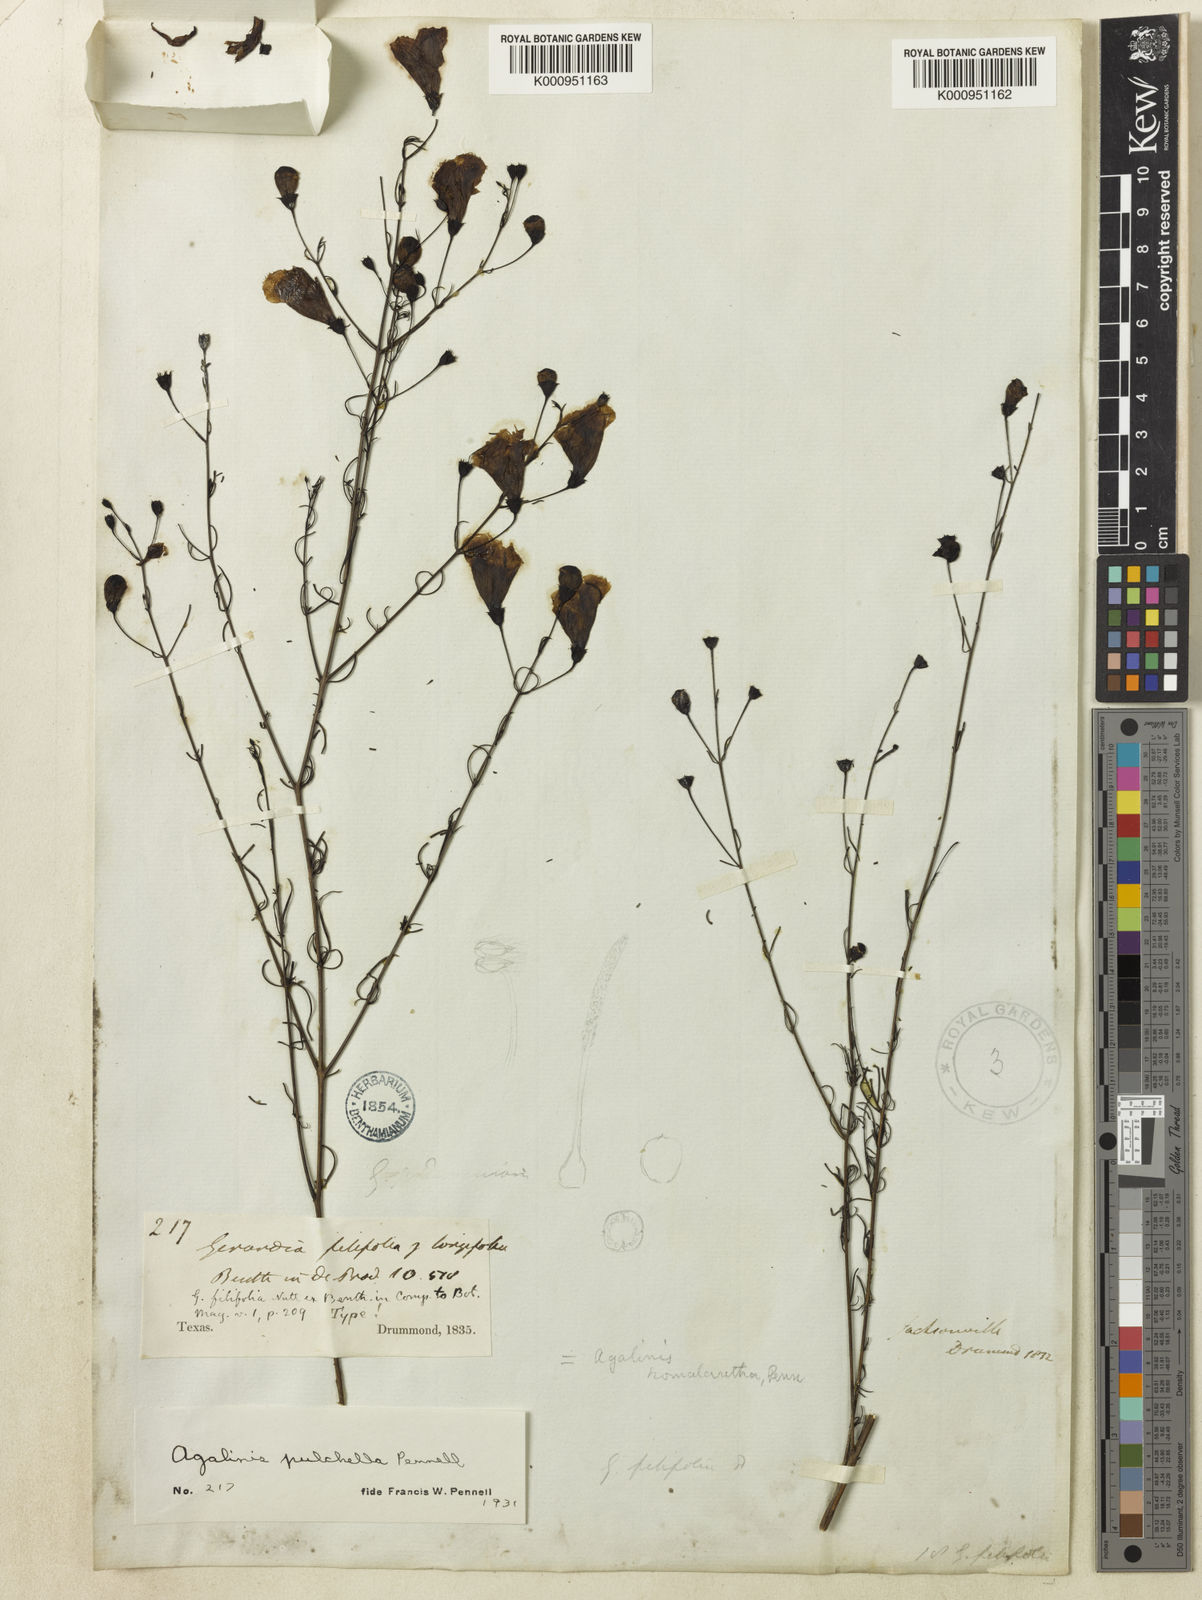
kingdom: Plantae
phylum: Tracheophyta
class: Magnoliopsida
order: Lamiales
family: Orobanchaceae
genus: Agalinis
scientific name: Agalinis pulchella
